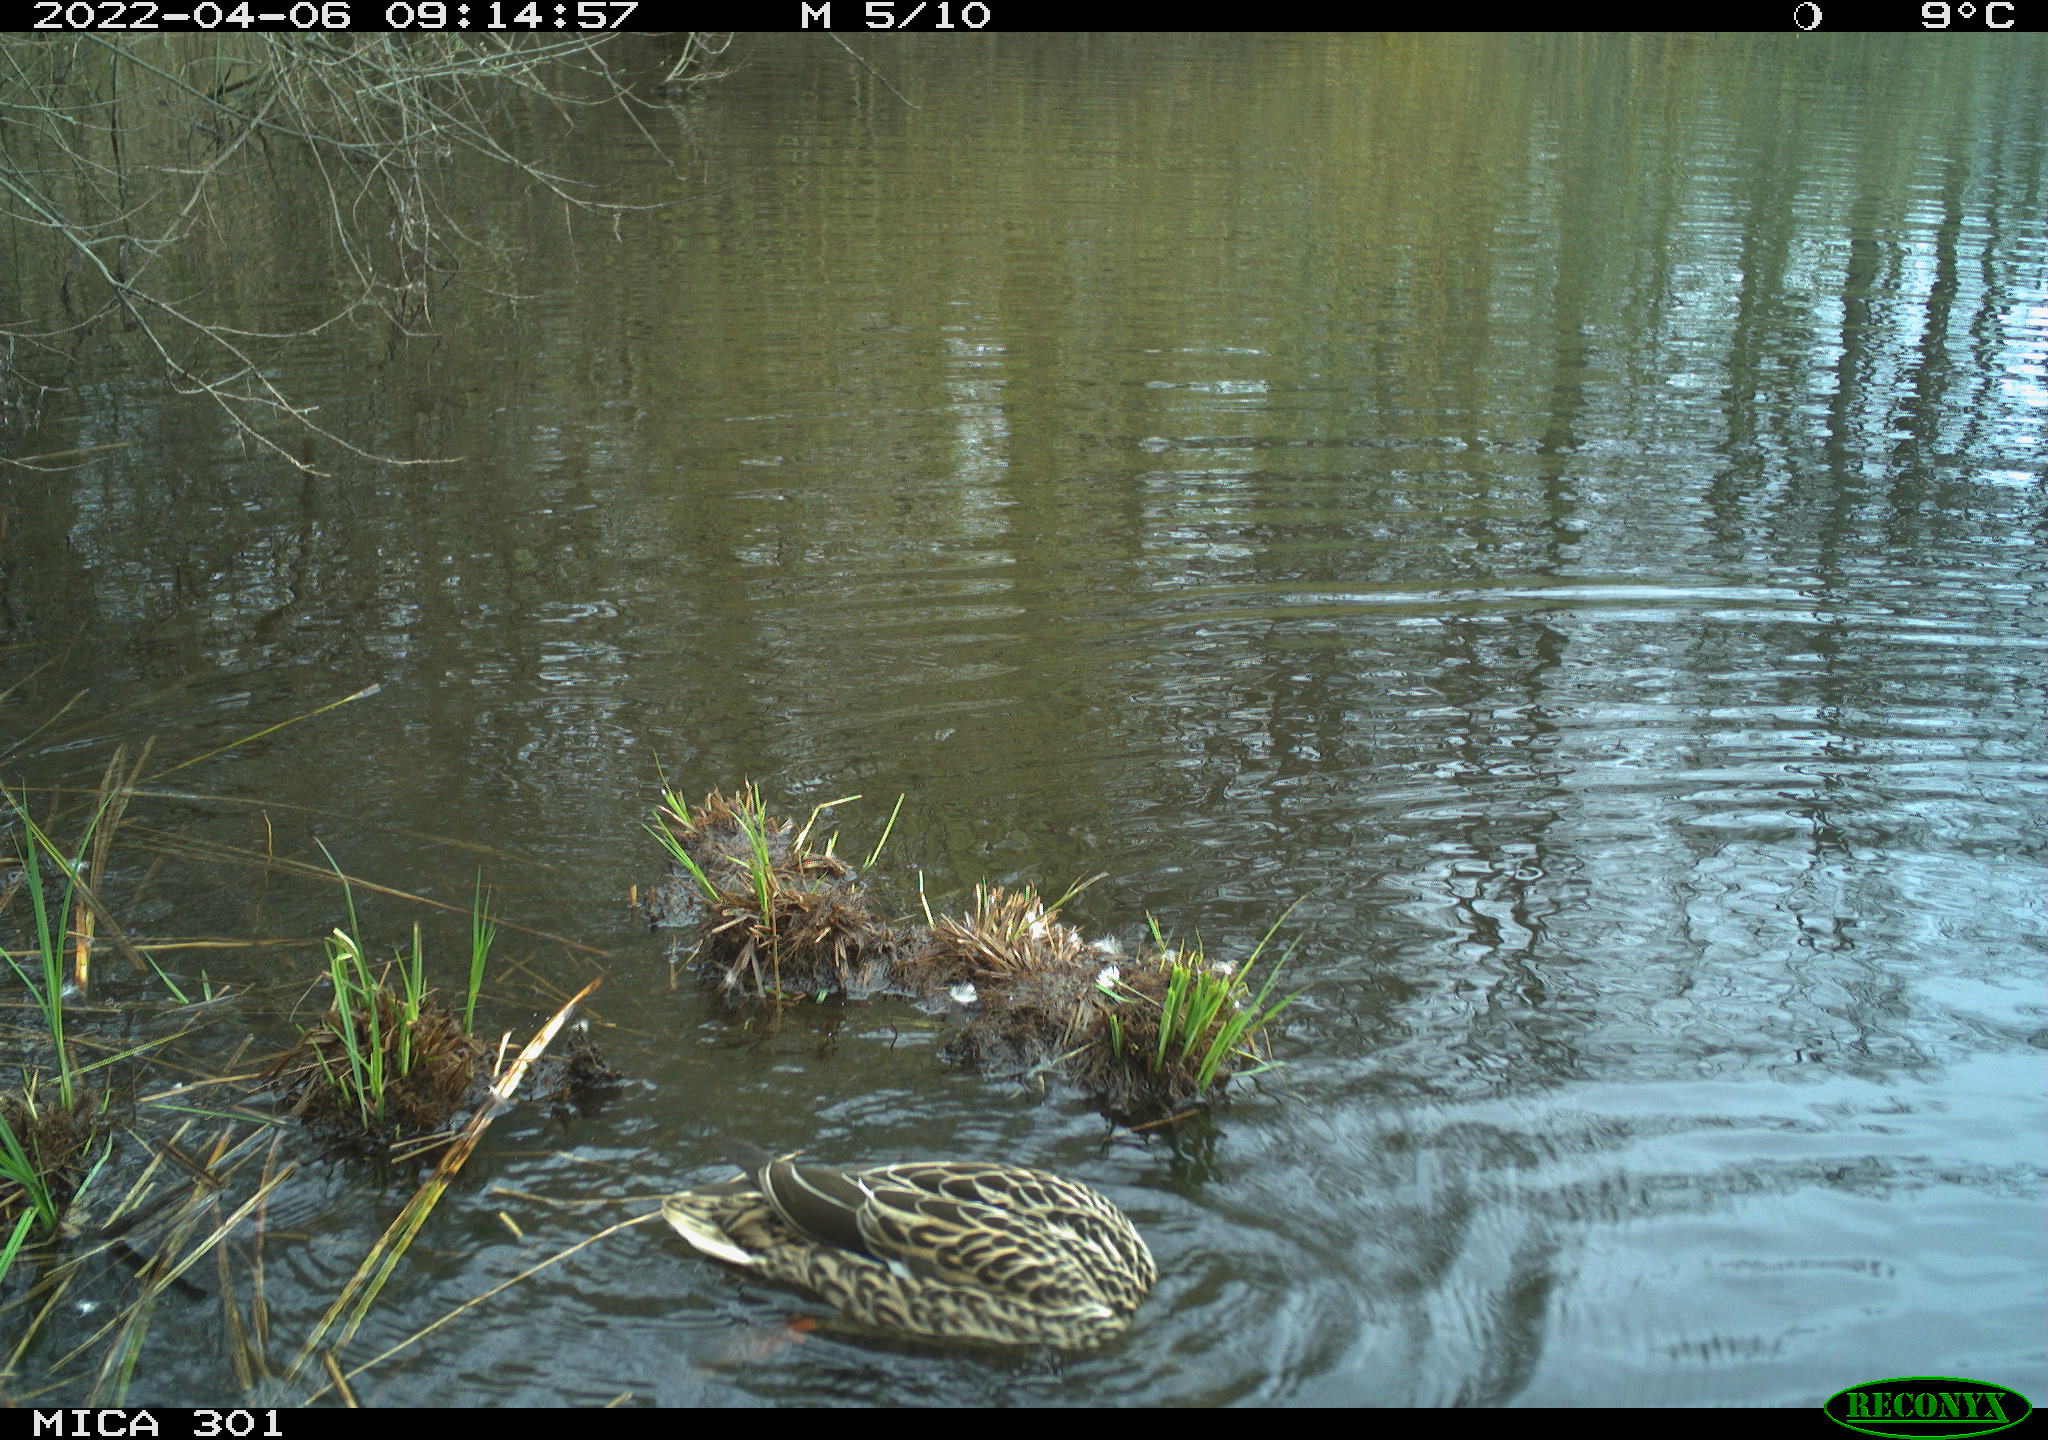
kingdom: Animalia
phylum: Chordata
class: Aves
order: Anseriformes
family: Anatidae
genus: Anas
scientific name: Anas platyrhynchos
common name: Mallard
